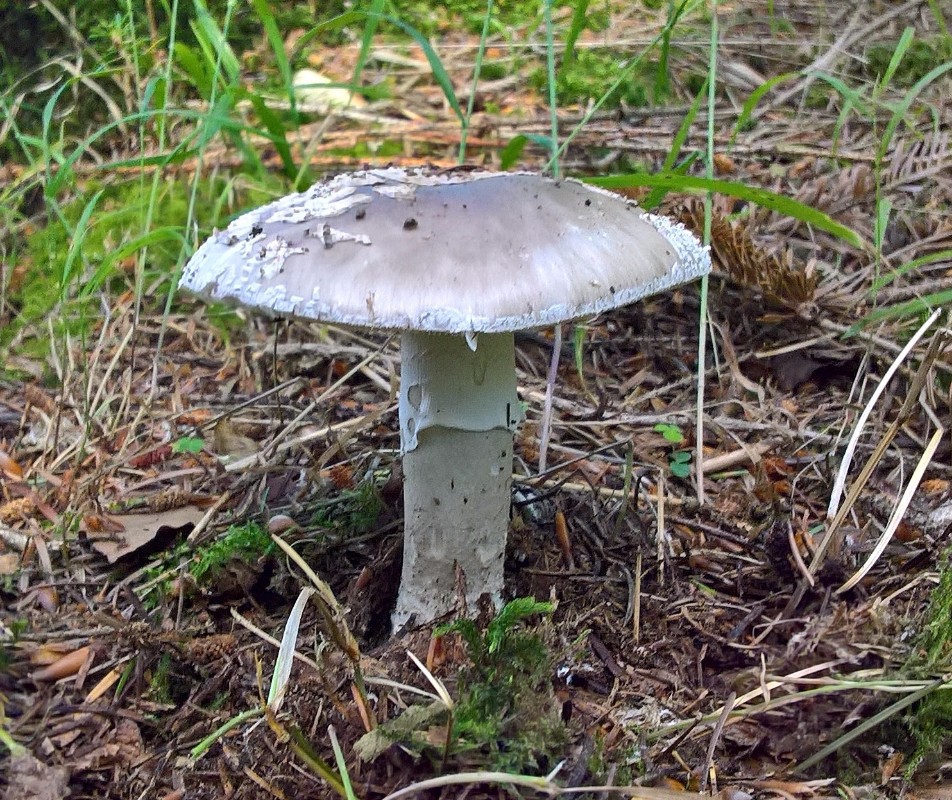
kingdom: Fungi
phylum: Basidiomycota
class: Agaricomycetes
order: Agaricales
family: Amanitaceae
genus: Amanita
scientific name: Amanita
